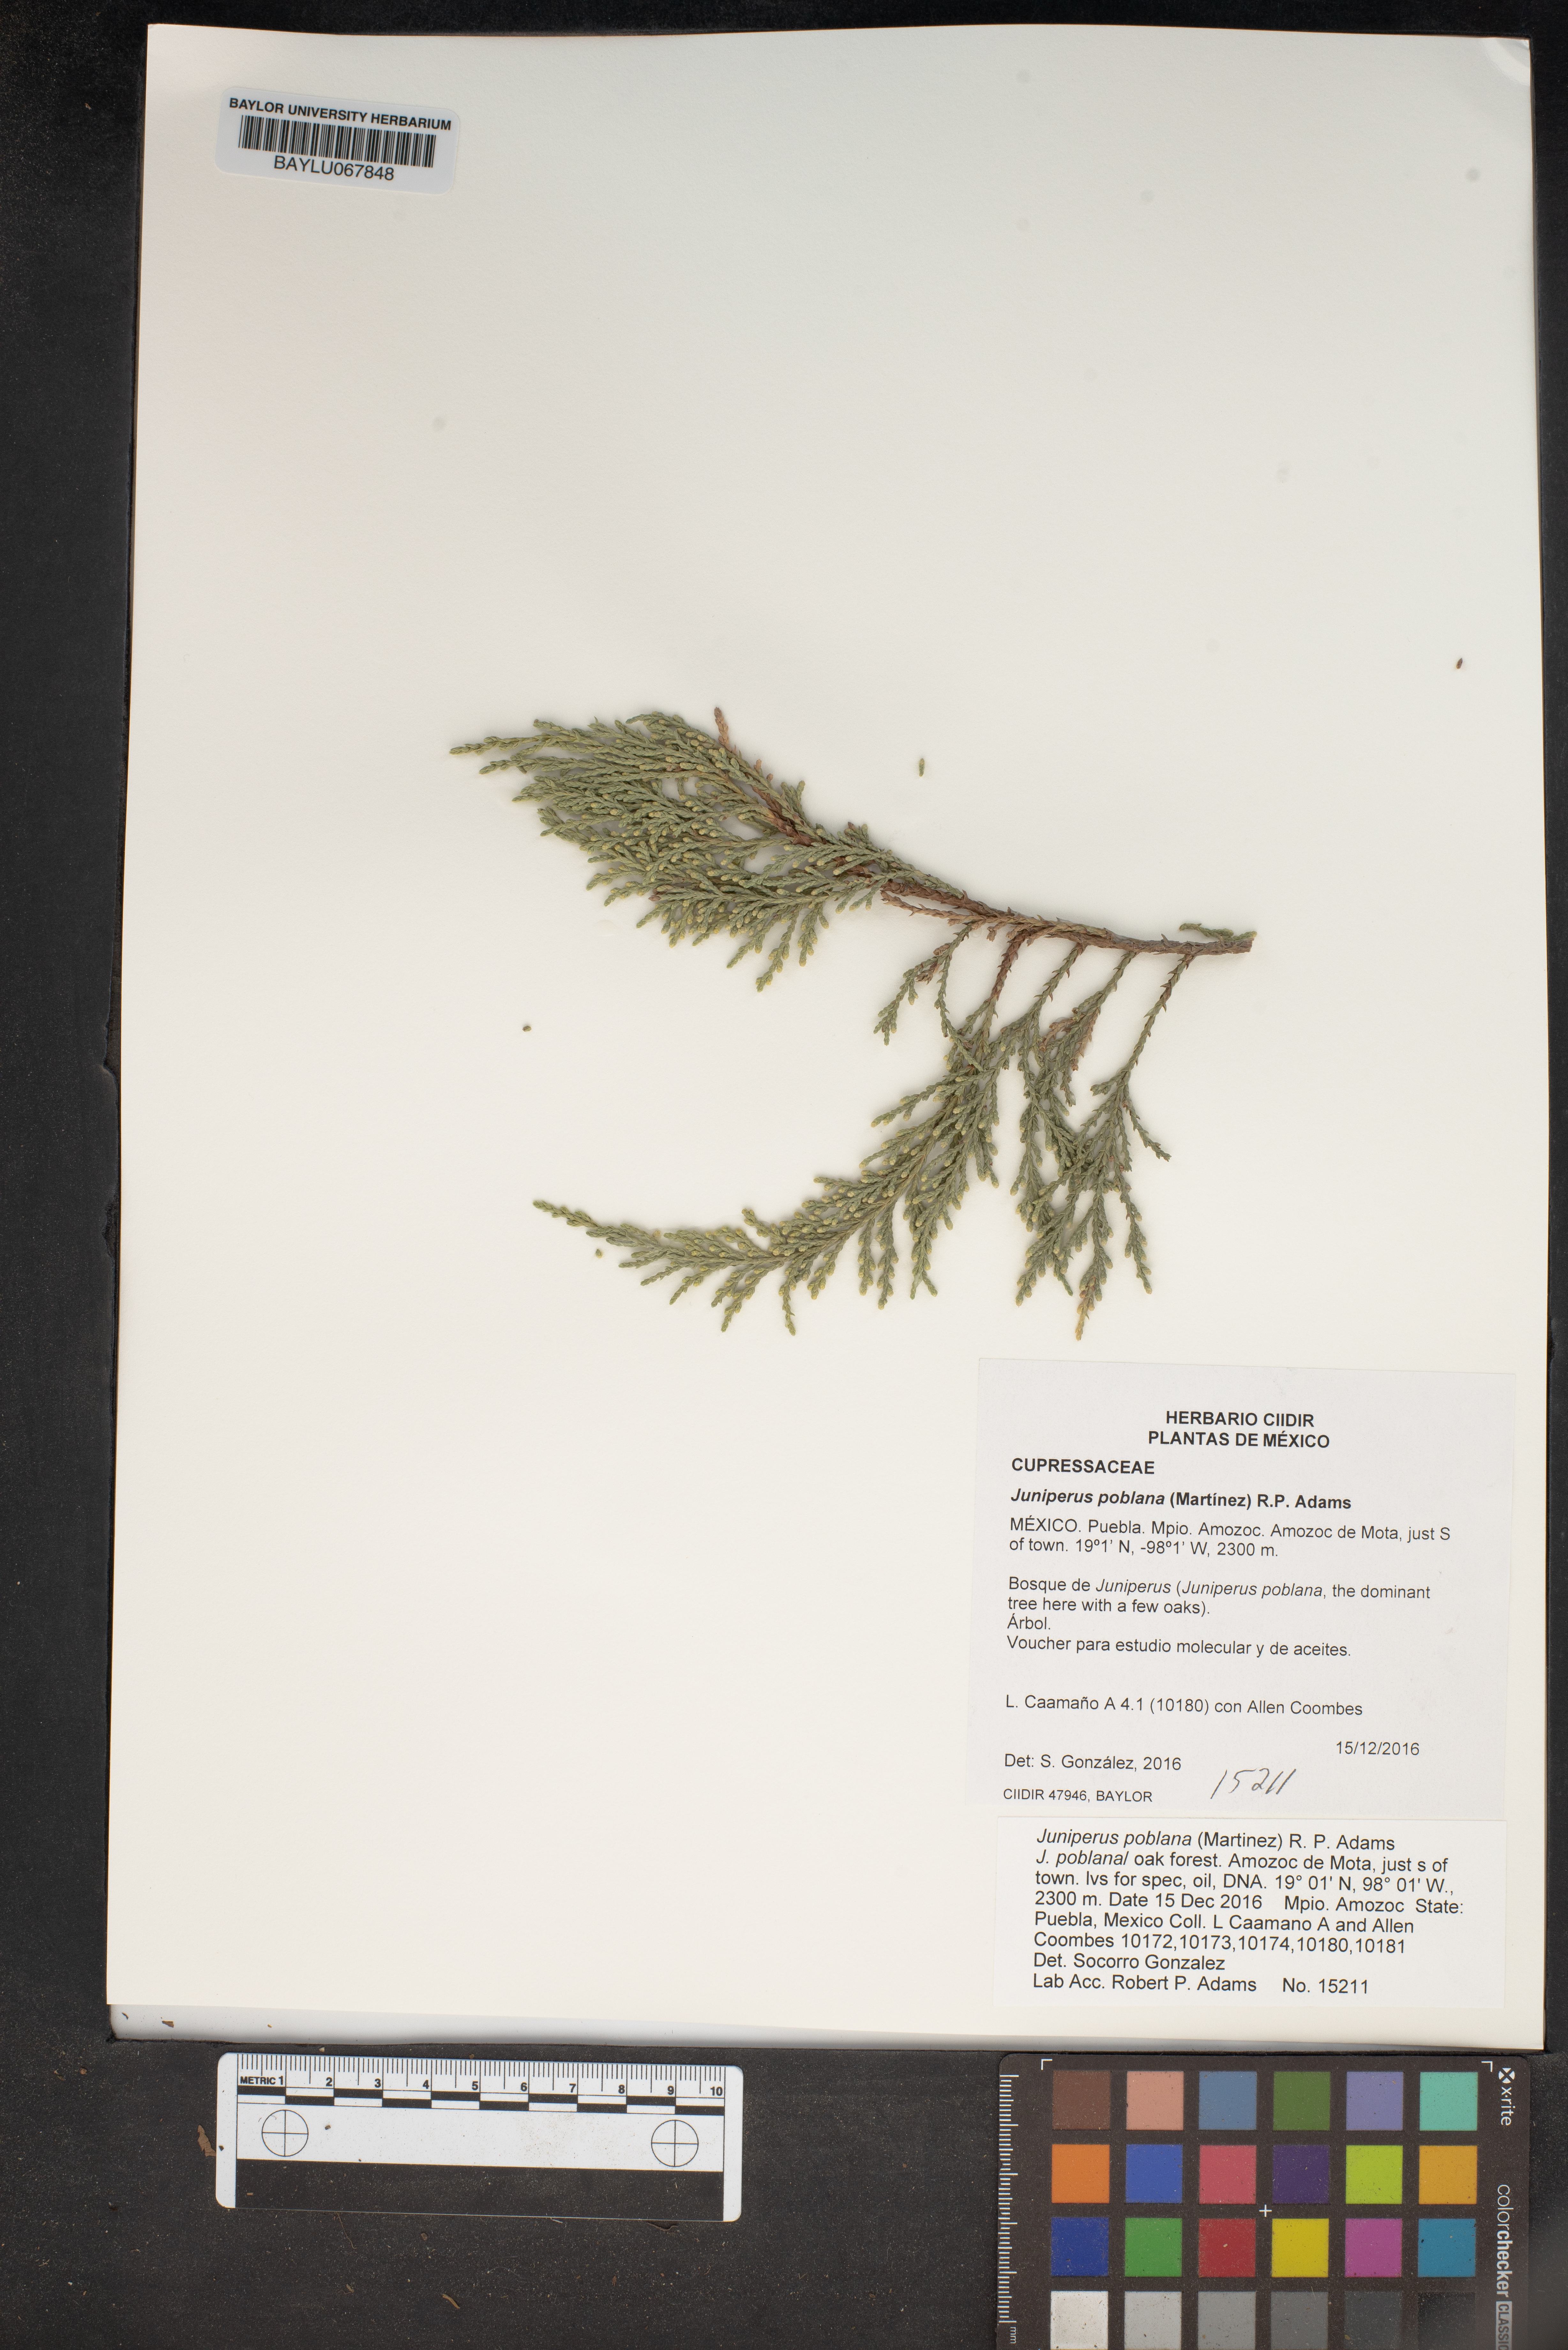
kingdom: Plantae
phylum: Tracheophyta
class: Pinopsida
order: Pinales
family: Cupressaceae
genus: Juniperus
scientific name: Juniperus flaccida
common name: Drooping juniper
